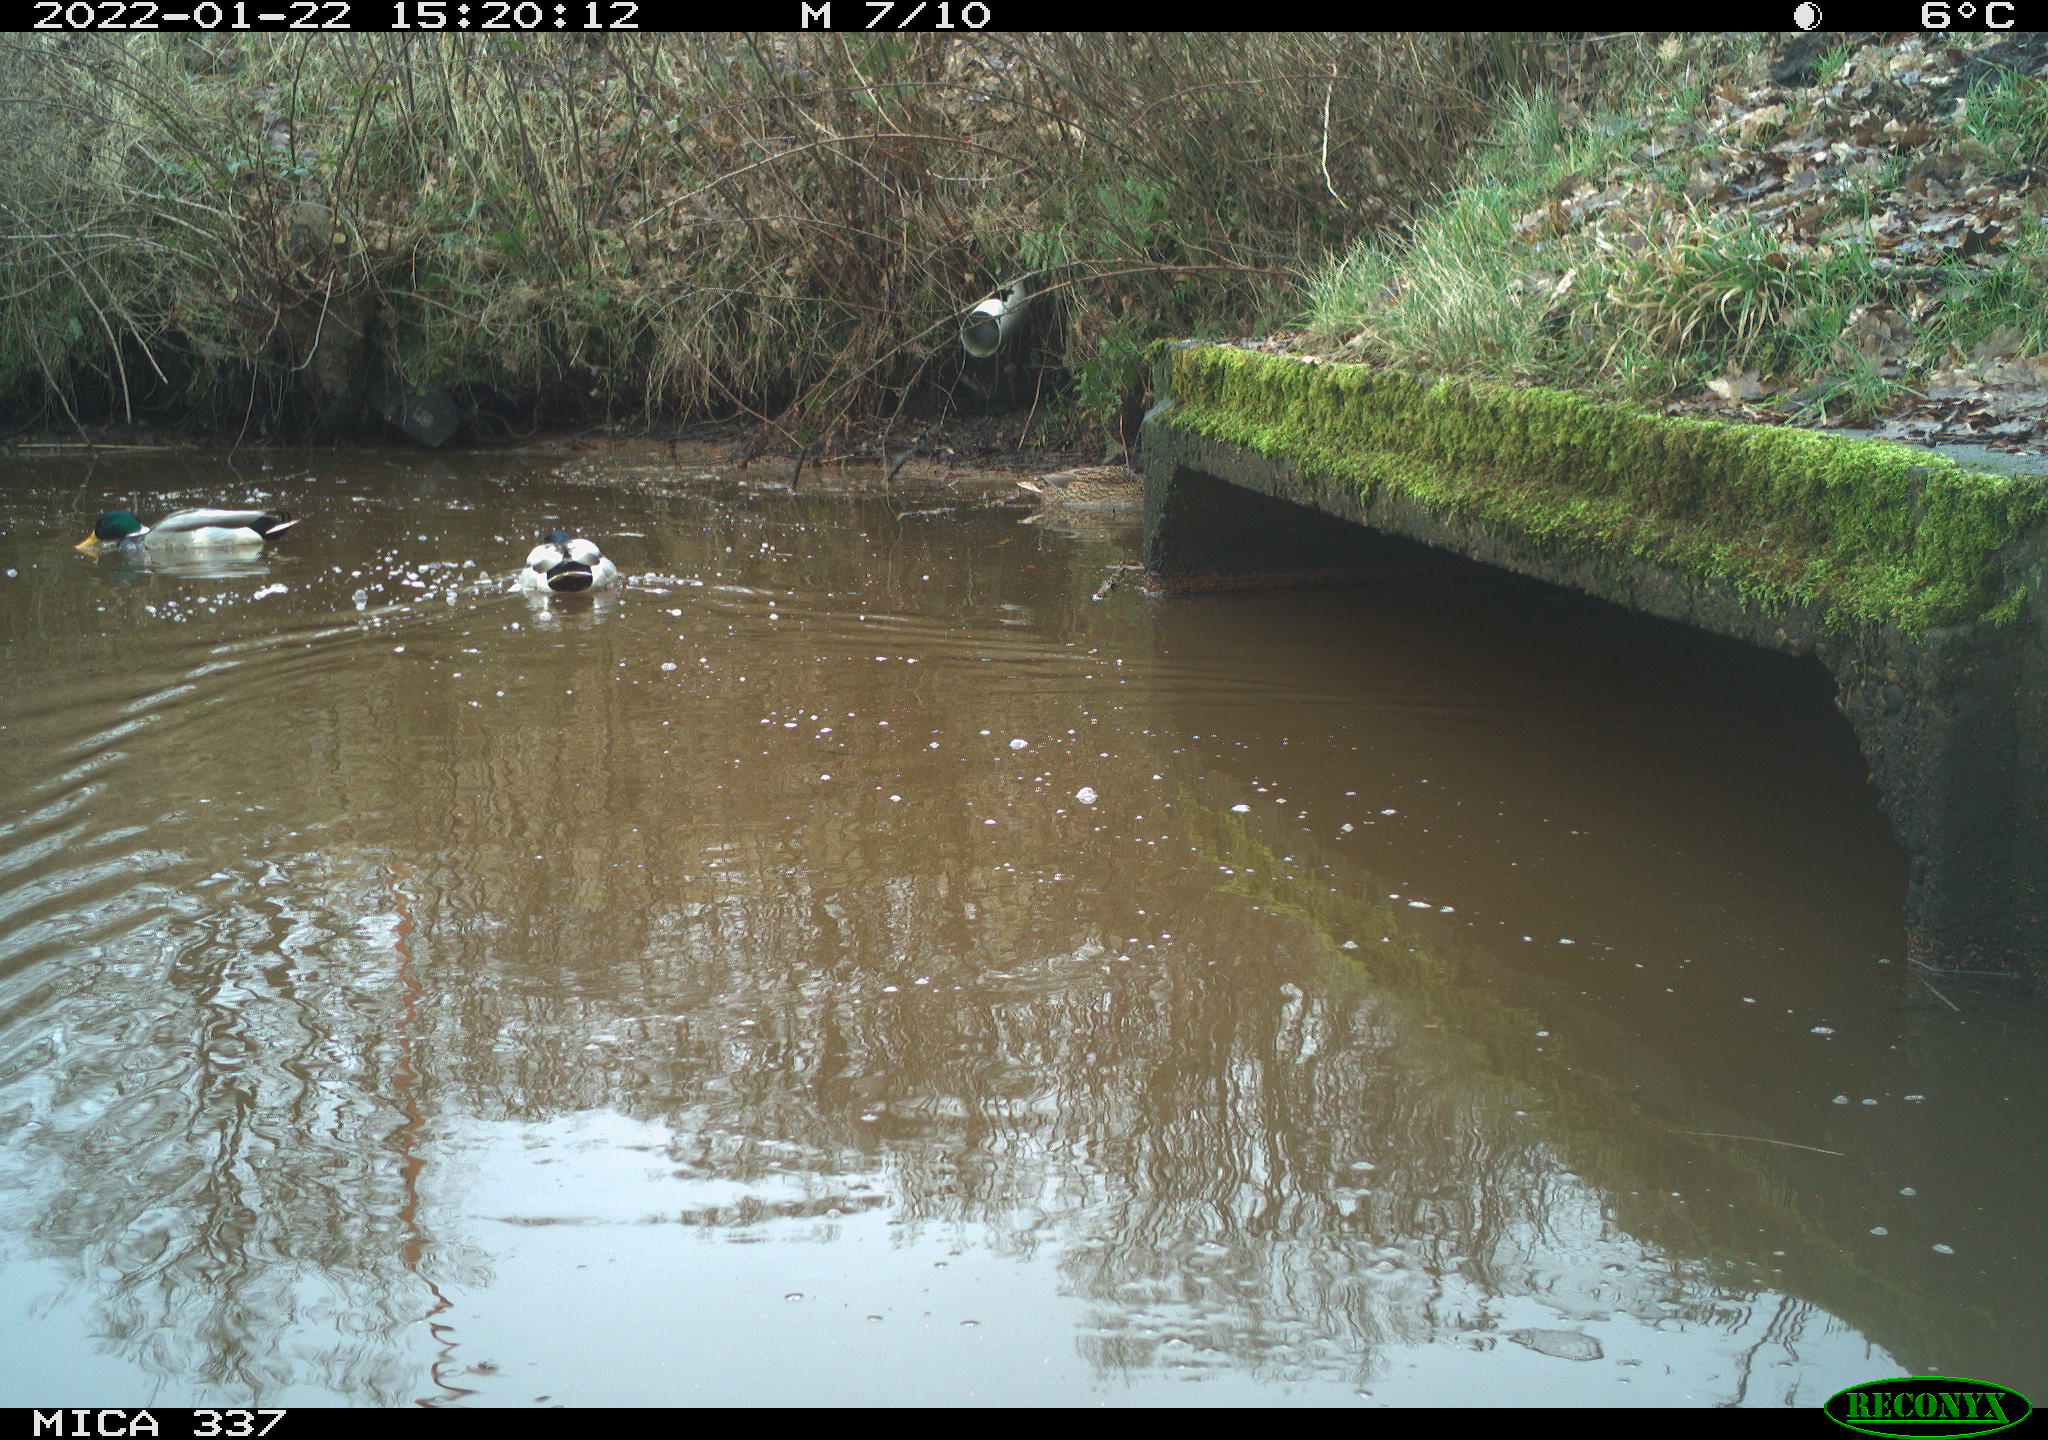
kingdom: Animalia
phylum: Chordata
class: Aves
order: Anseriformes
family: Anatidae
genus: Anas
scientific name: Anas platyrhynchos
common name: Mallard
